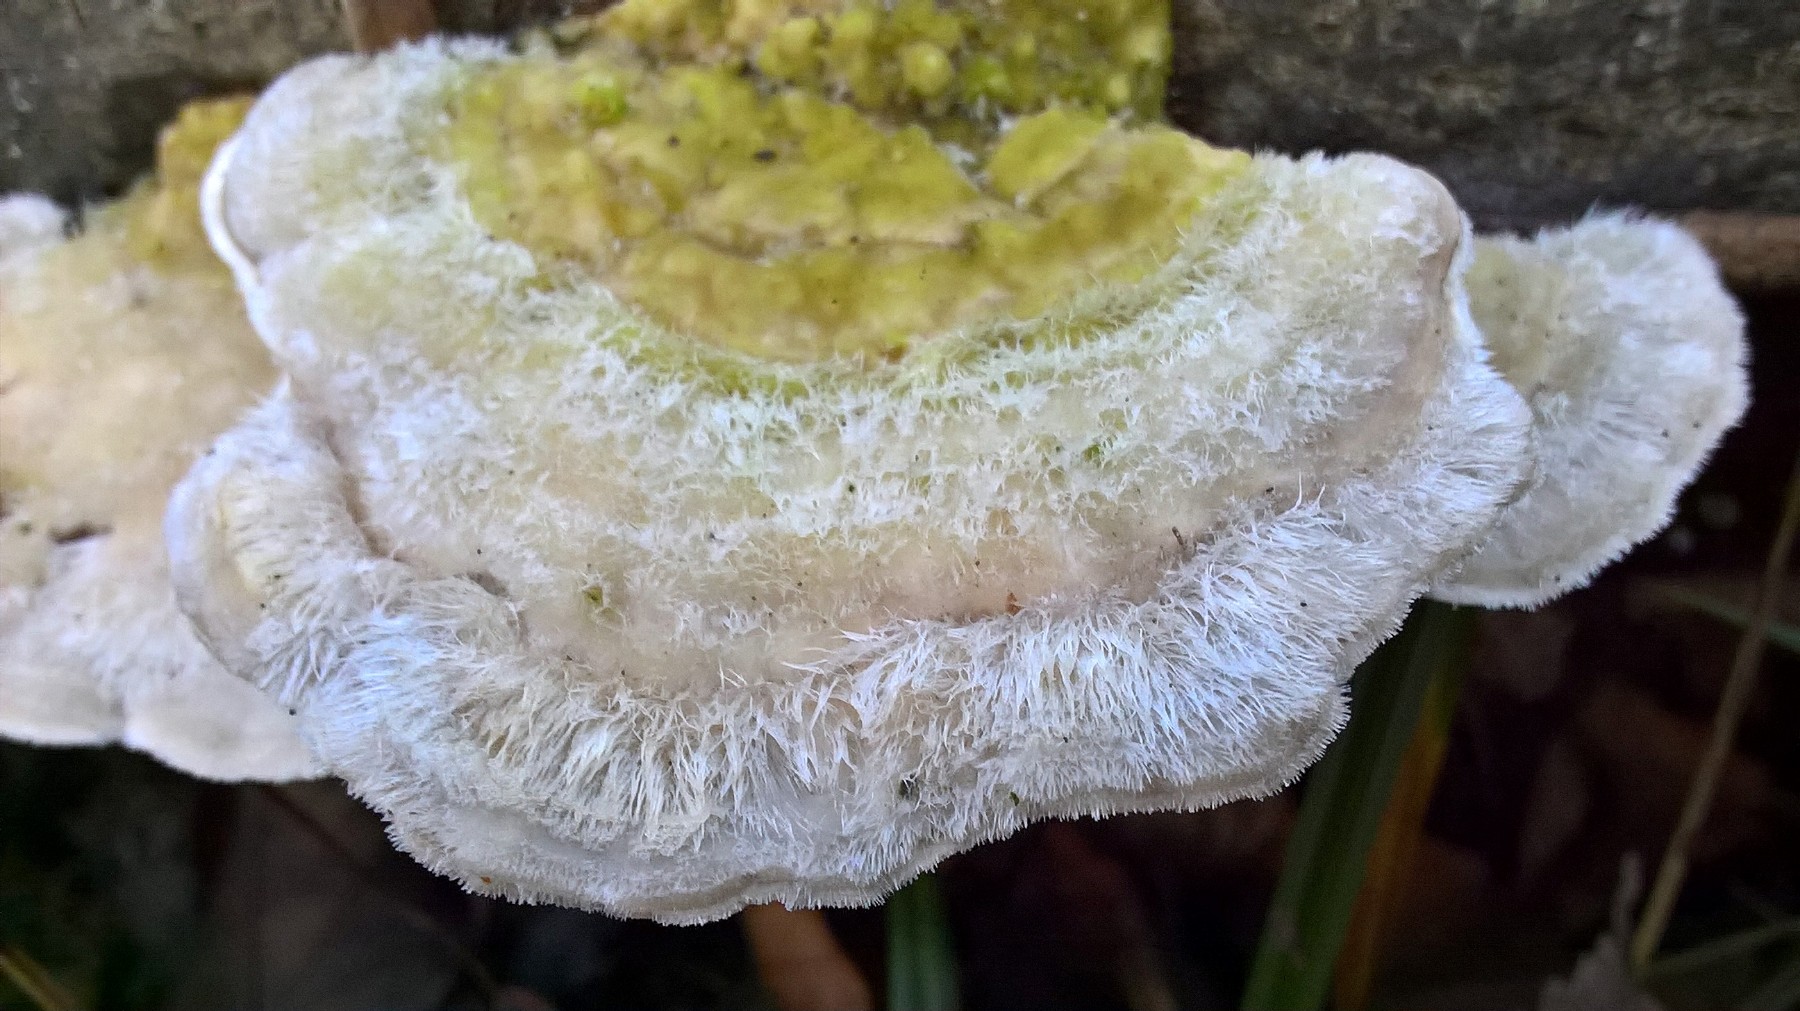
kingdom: Fungi
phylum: Basidiomycota
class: Agaricomycetes
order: Polyporales
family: Polyporaceae
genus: Trametes
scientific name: Trametes hirsuta
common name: håret læderporesvamp
